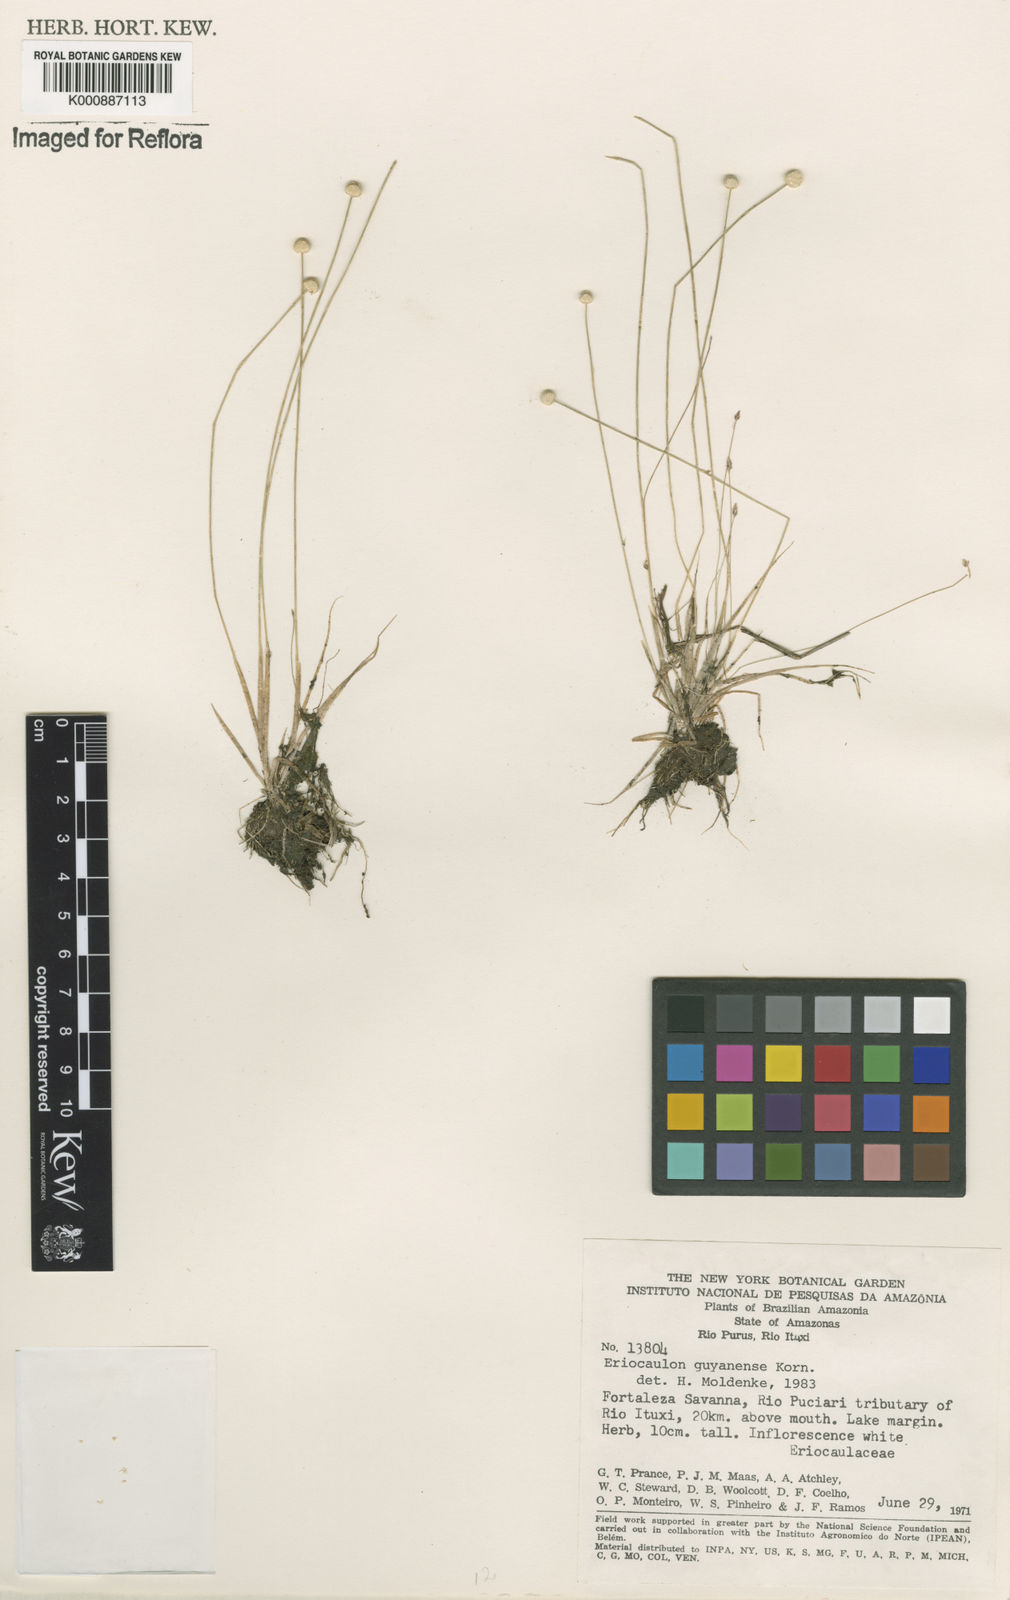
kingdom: Plantae
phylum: Tracheophyta
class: Liliopsida
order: Poales
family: Eriocaulaceae
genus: Eriocaulon
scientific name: Eriocaulon
